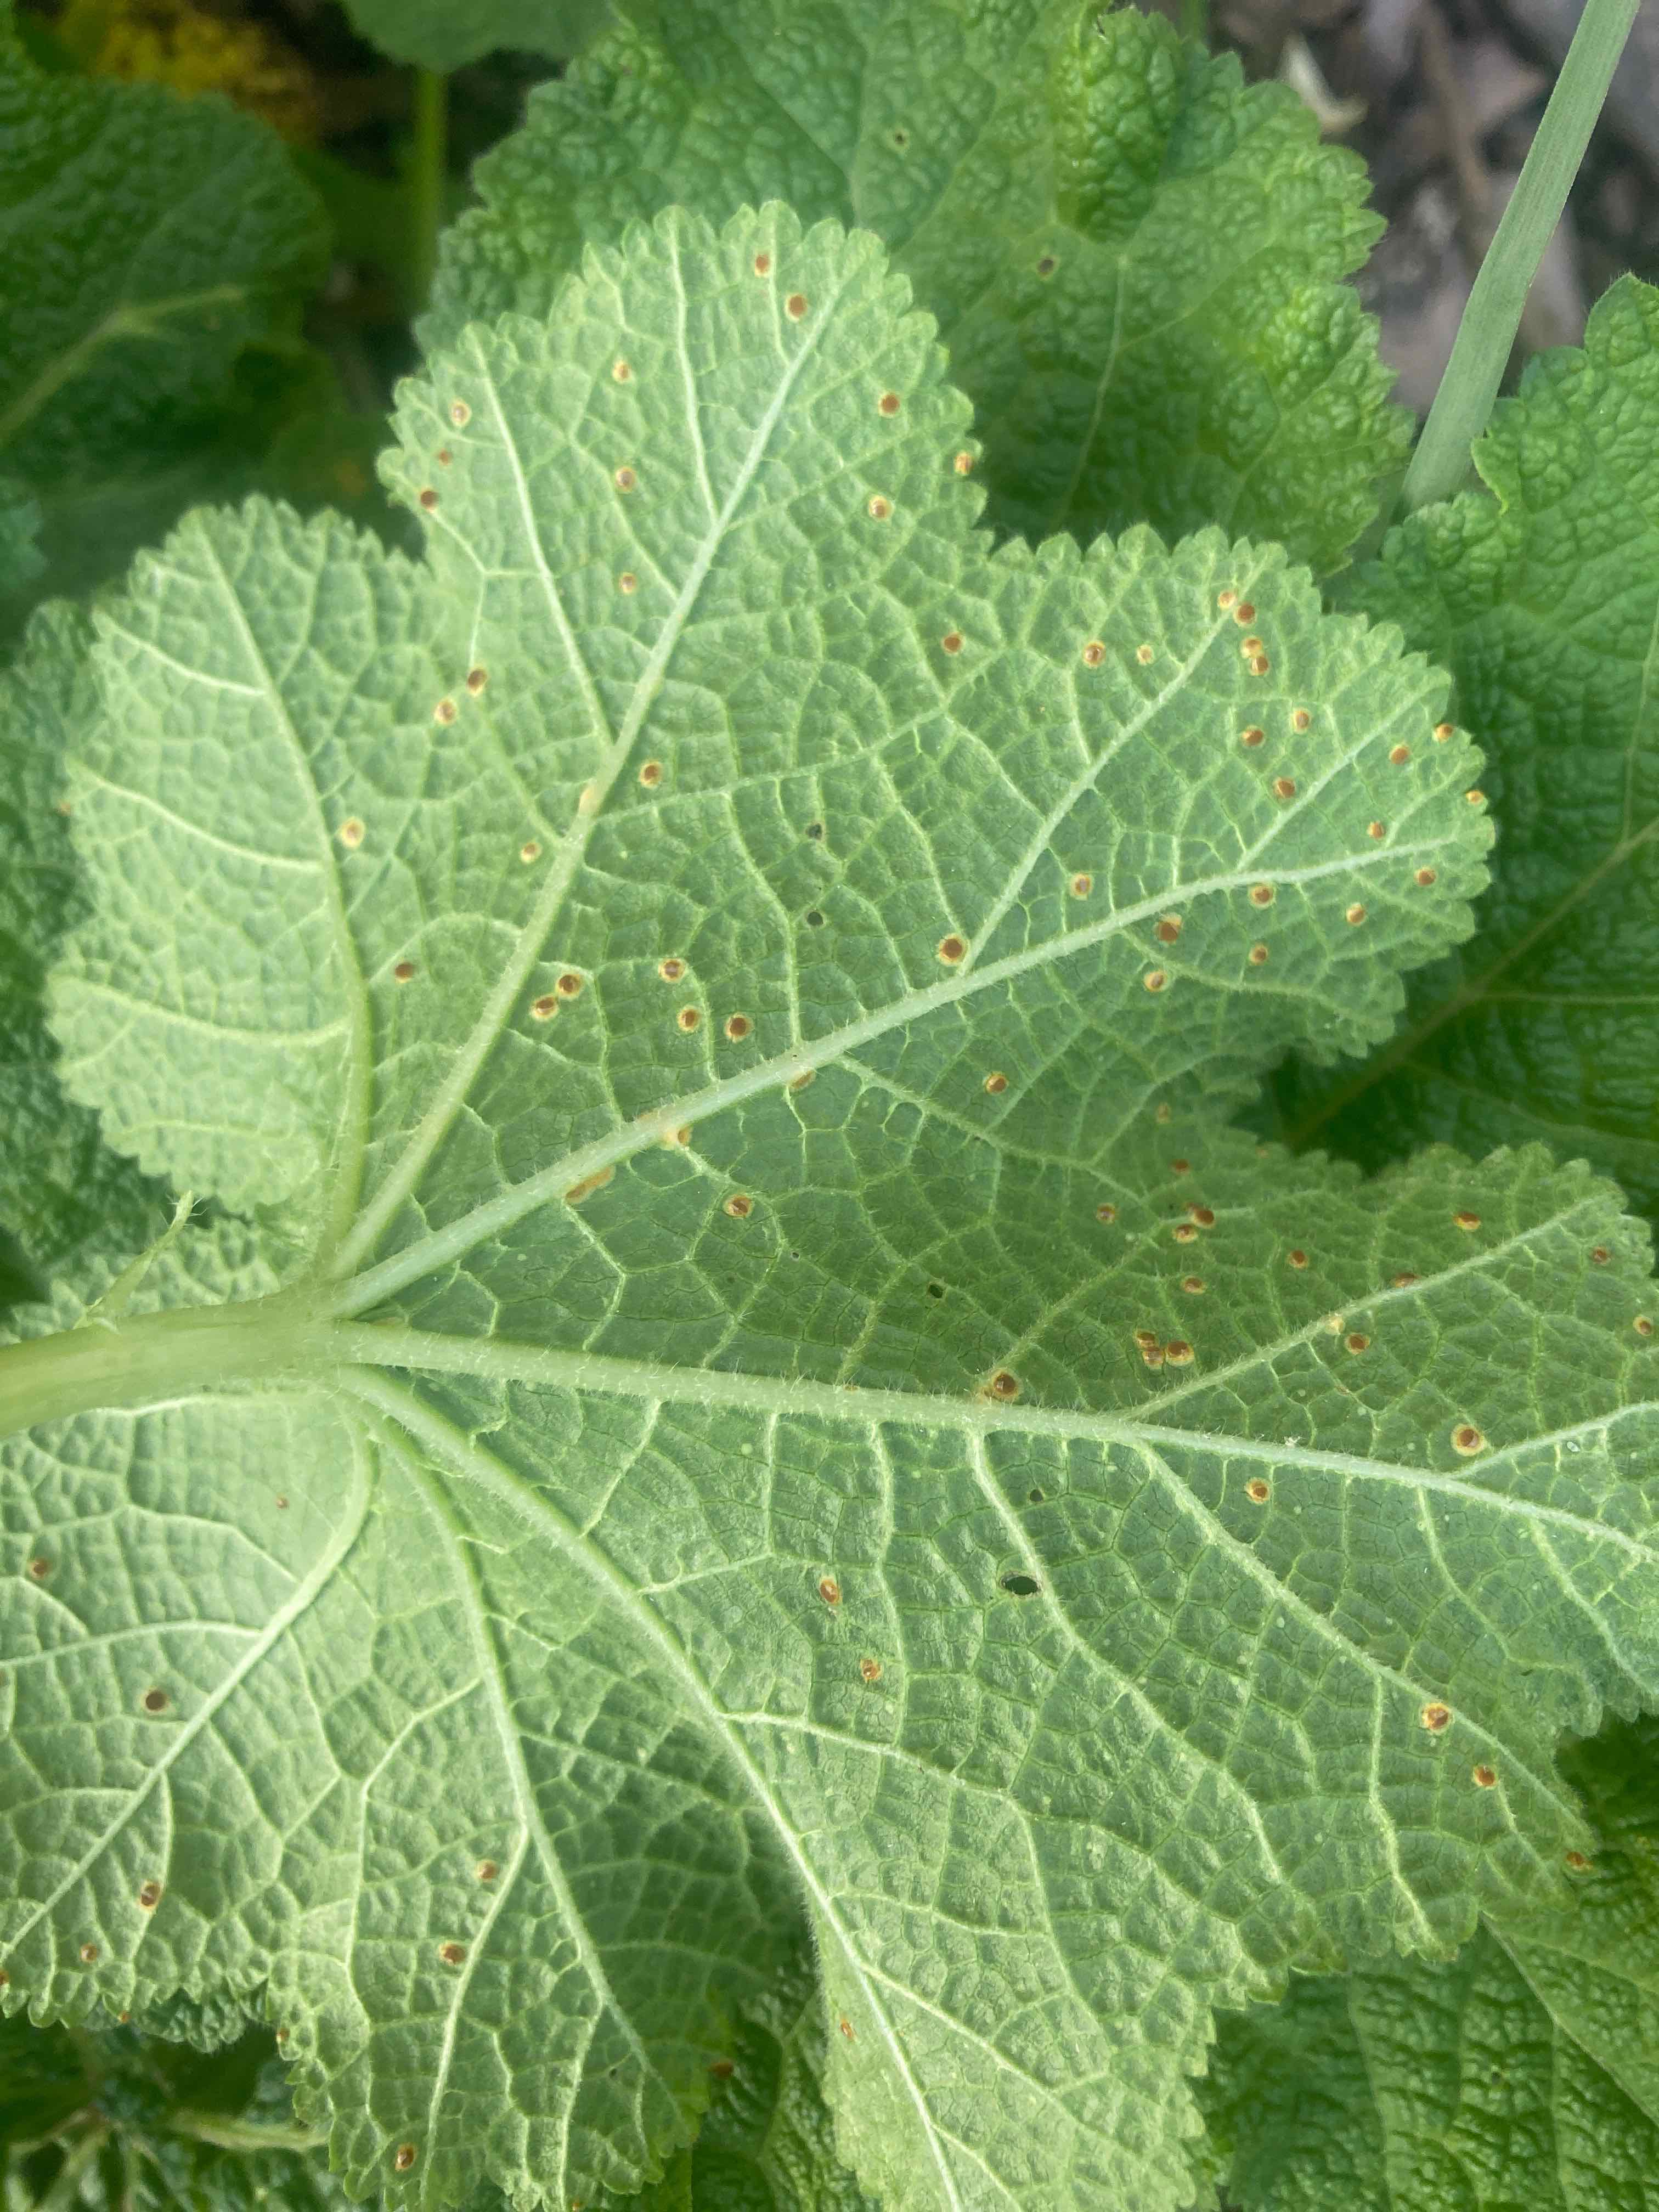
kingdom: Fungi
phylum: Basidiomycota
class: Pucciniomycetes
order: Pucciniales
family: Pucciniaceae
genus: Puccinia
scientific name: Puccinia malvacearum
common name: stokrose-tvecellerust
